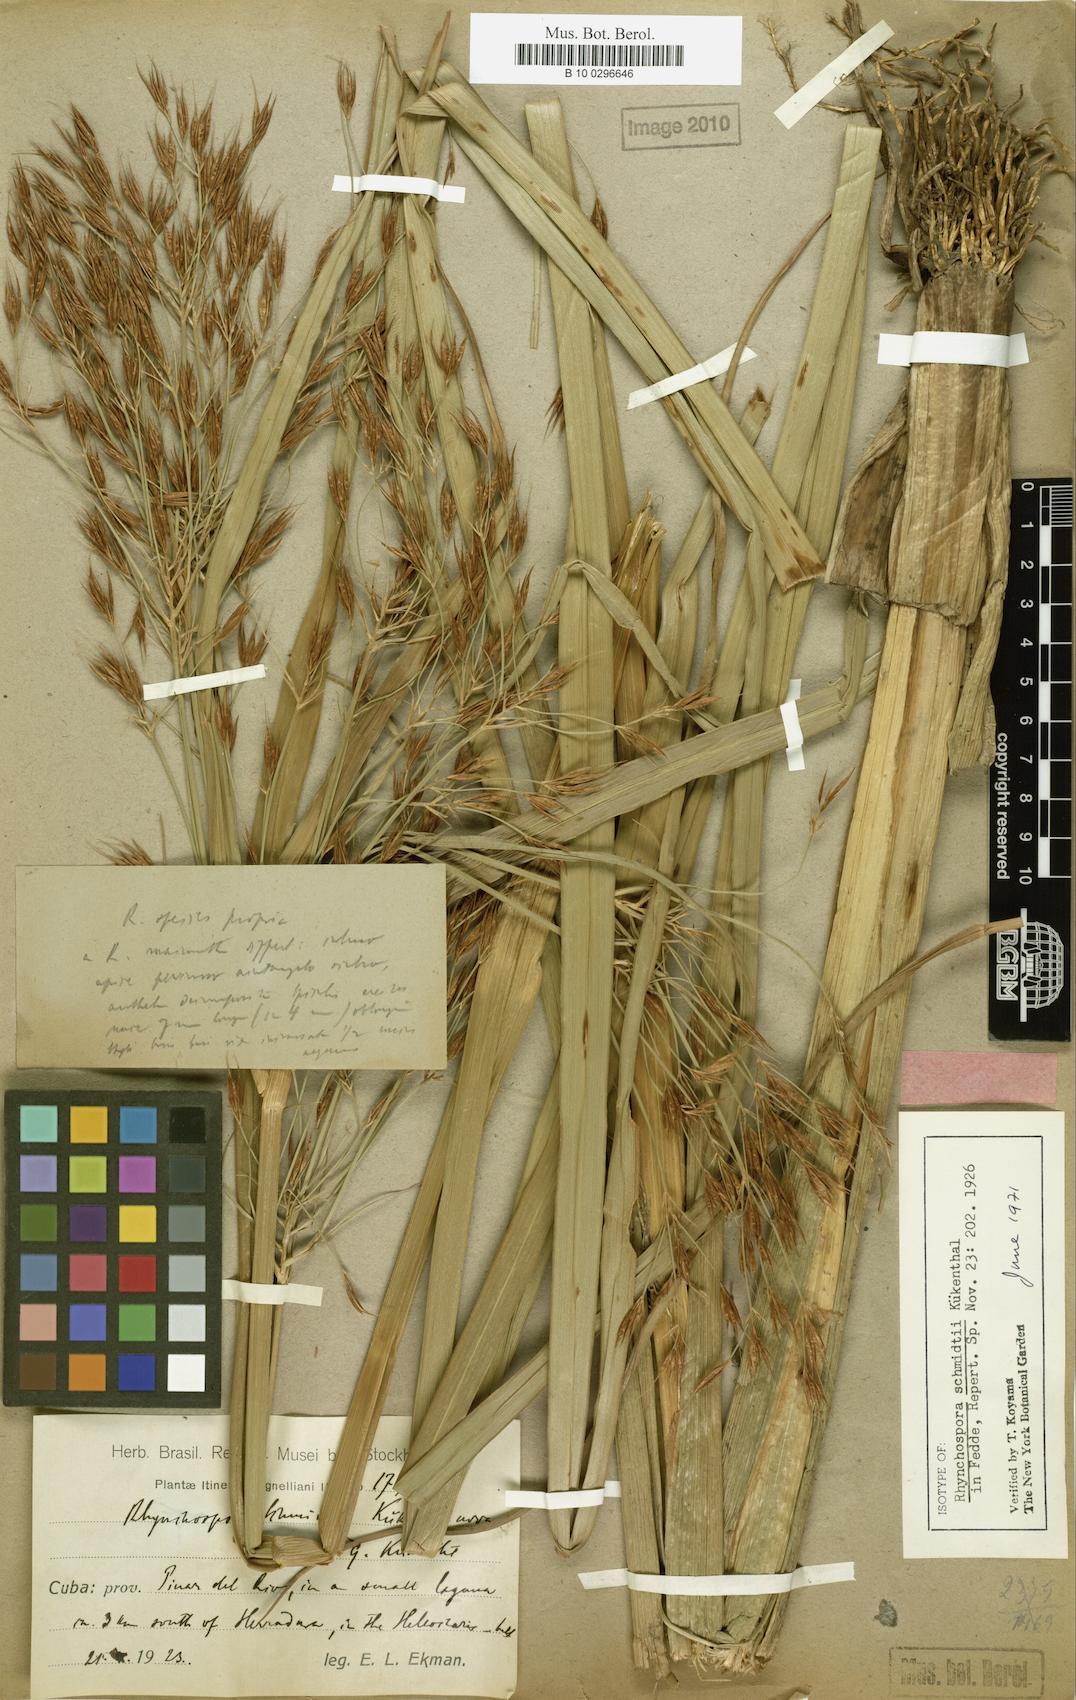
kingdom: Plantae
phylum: Tracheophyta
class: Liliopsida
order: Poales
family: Cyperaceae
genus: Rhynchospora
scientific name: Rhynchospora schmidtii
